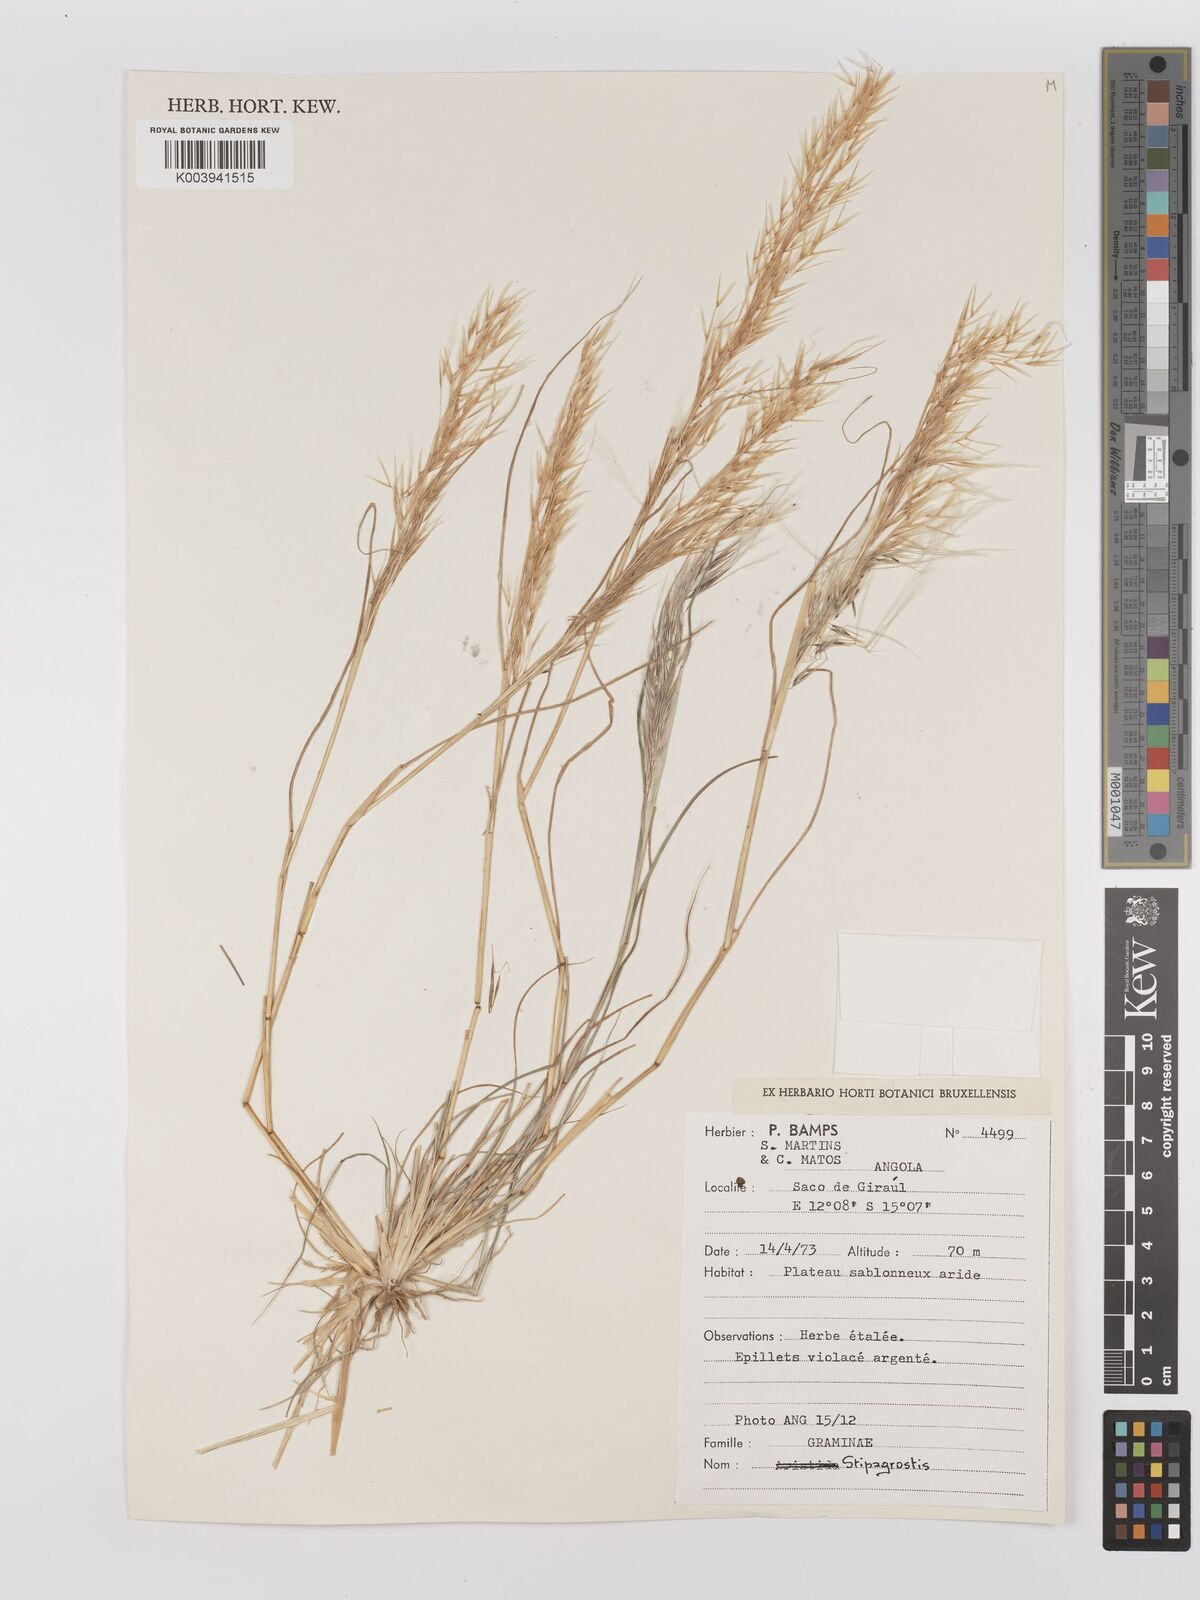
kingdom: Plantae
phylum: Tracheophyta
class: Liliopsida
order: Poales
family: Poaceae
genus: Stipagrostis
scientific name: Stipagrostis
